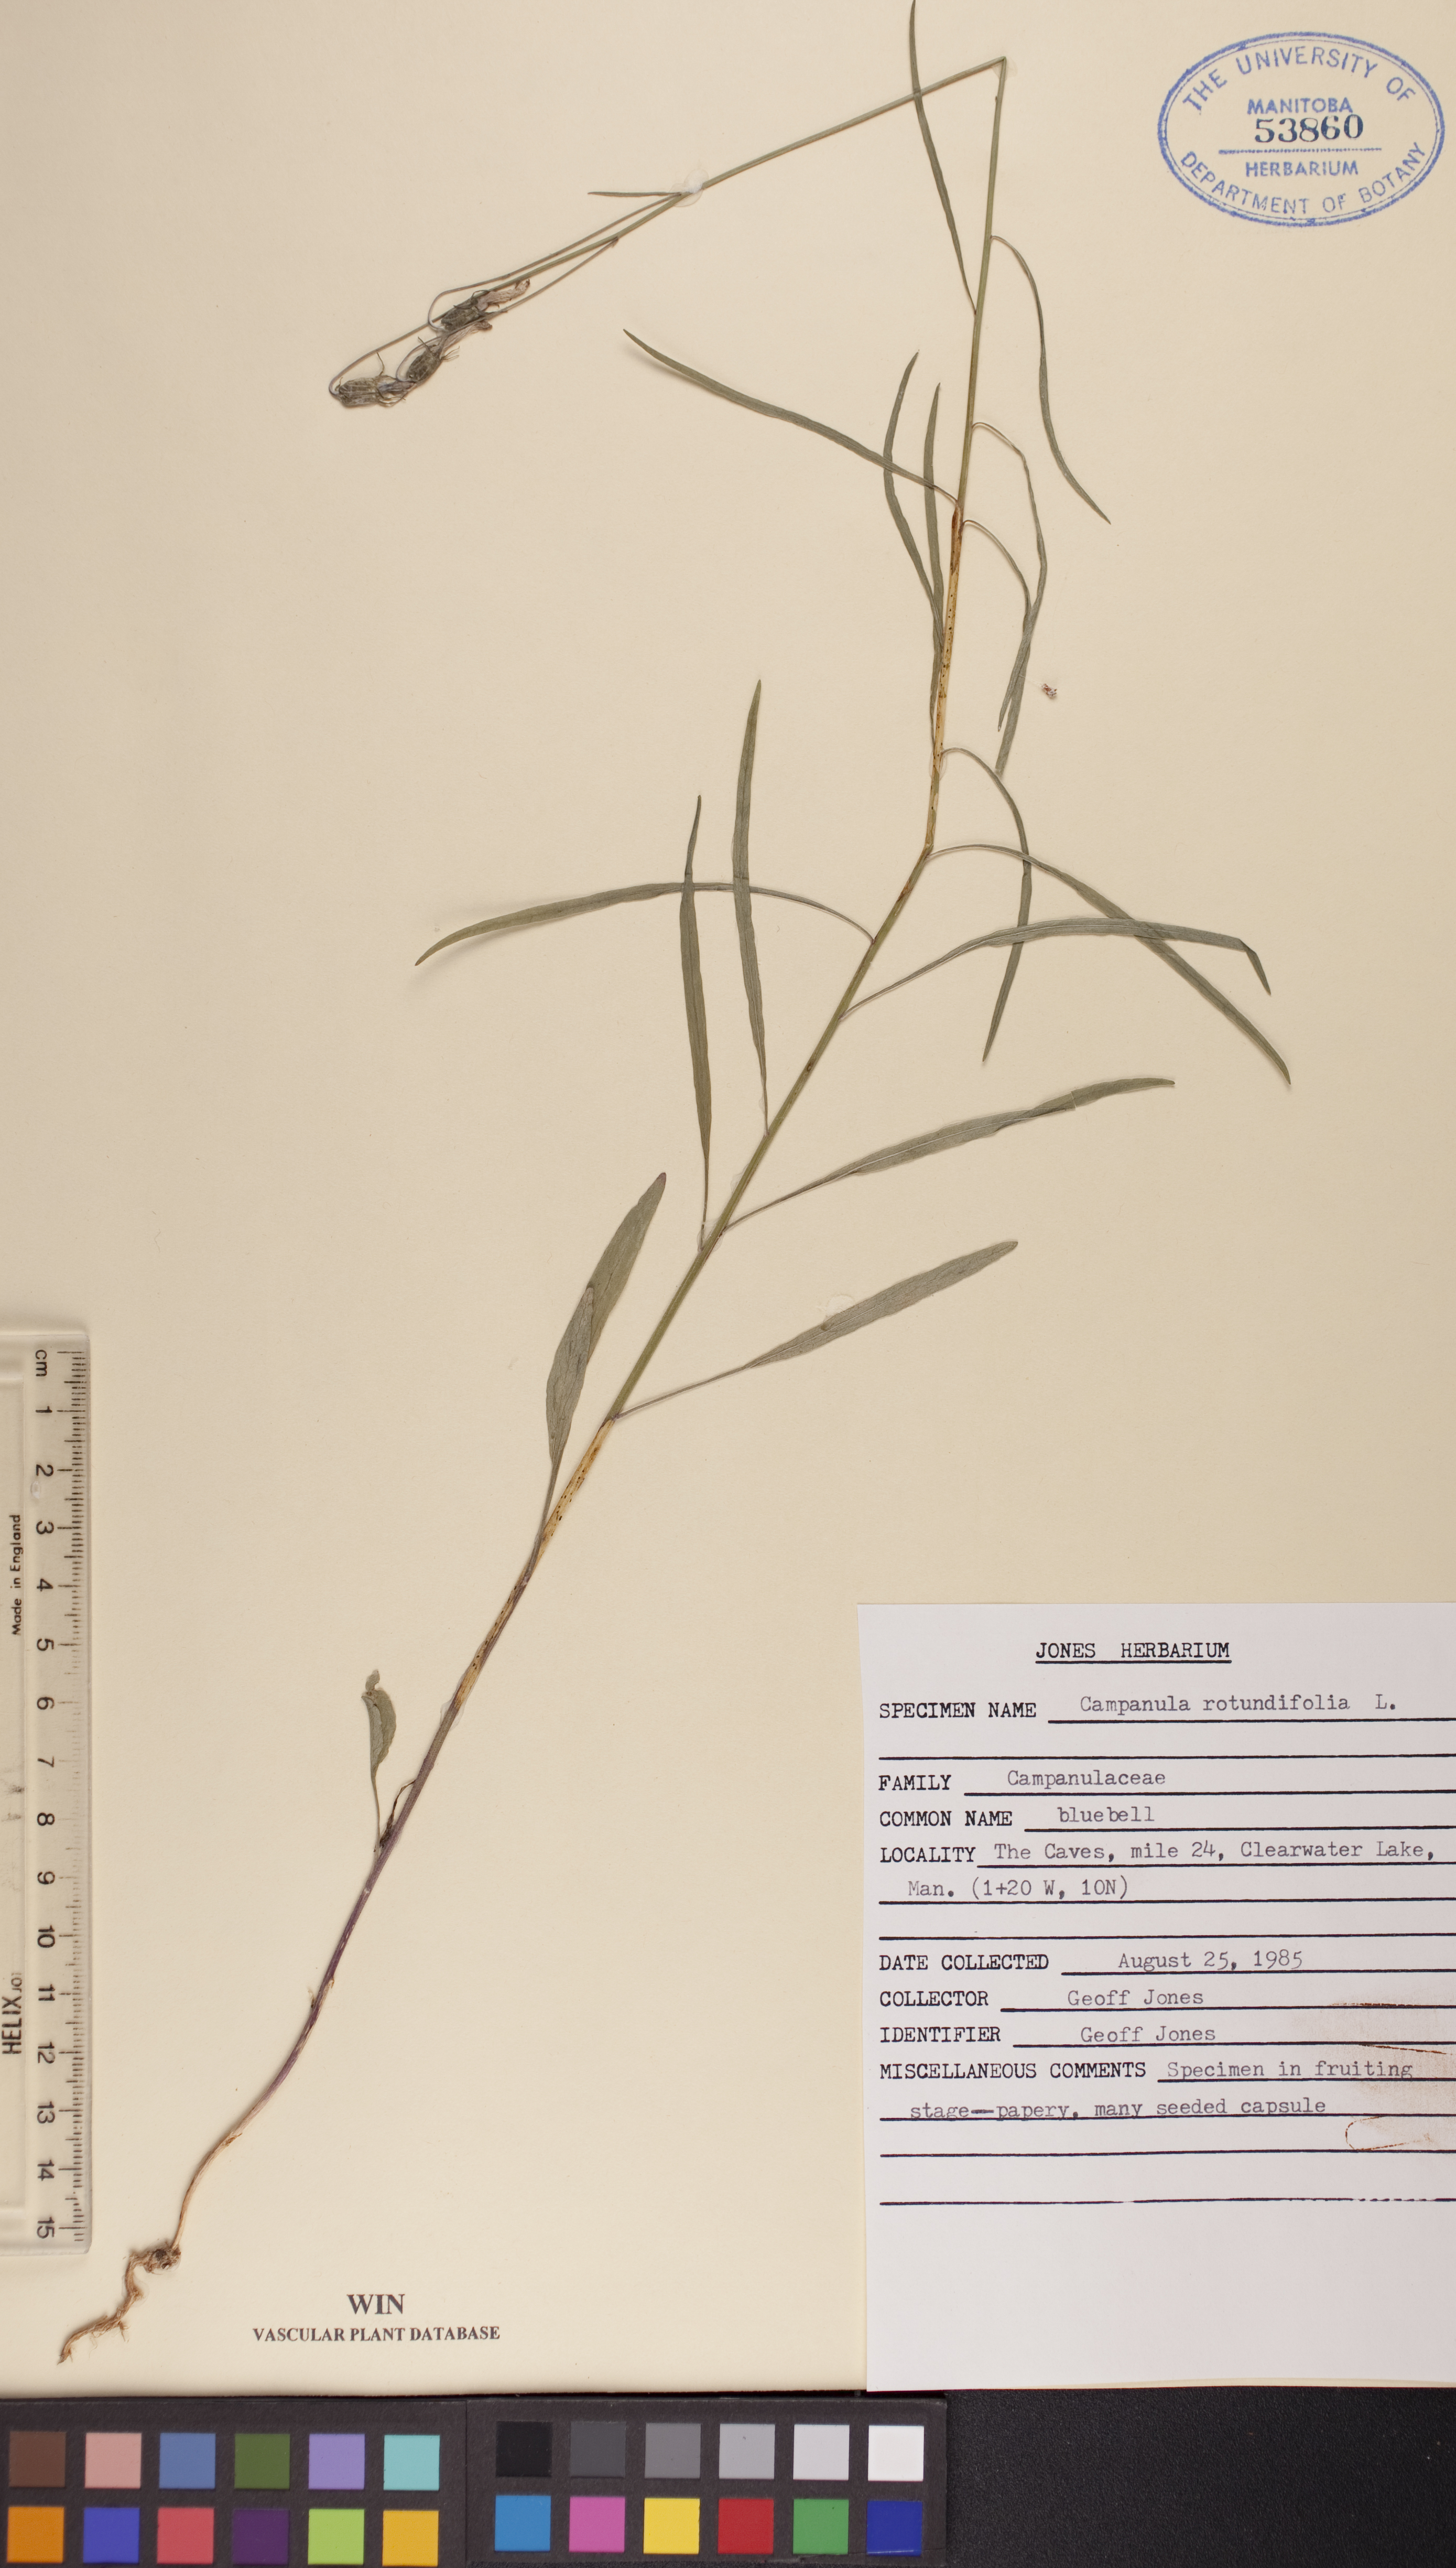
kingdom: Plantae
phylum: Tracheophyta
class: Magnoliopsida
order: Asterales
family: Campanulaceae
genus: Campanula
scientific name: Campanula rotundifolia
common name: Harebell
